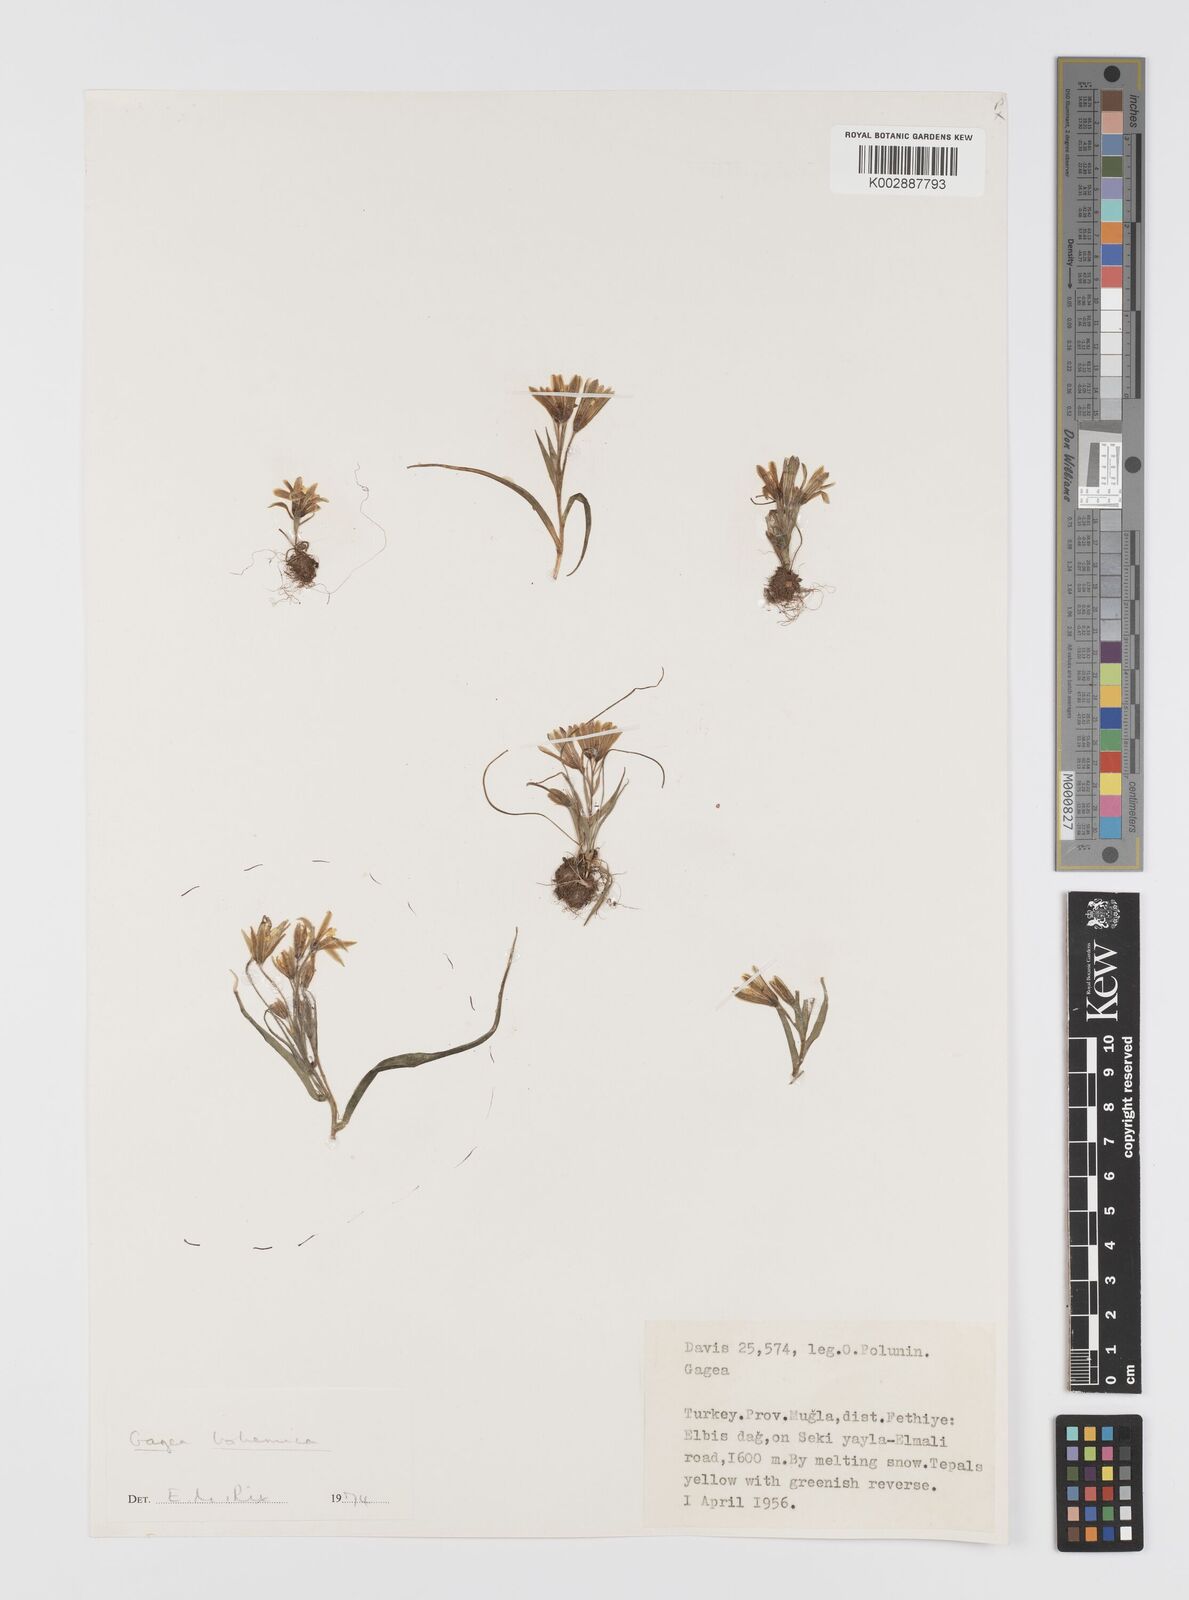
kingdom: Plantae
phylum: Tracheophyta
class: Liliopsida
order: Liliales
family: Liliaceae
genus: Gagea
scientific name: Gagea bohemica
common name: Early star-of-bethlehem
